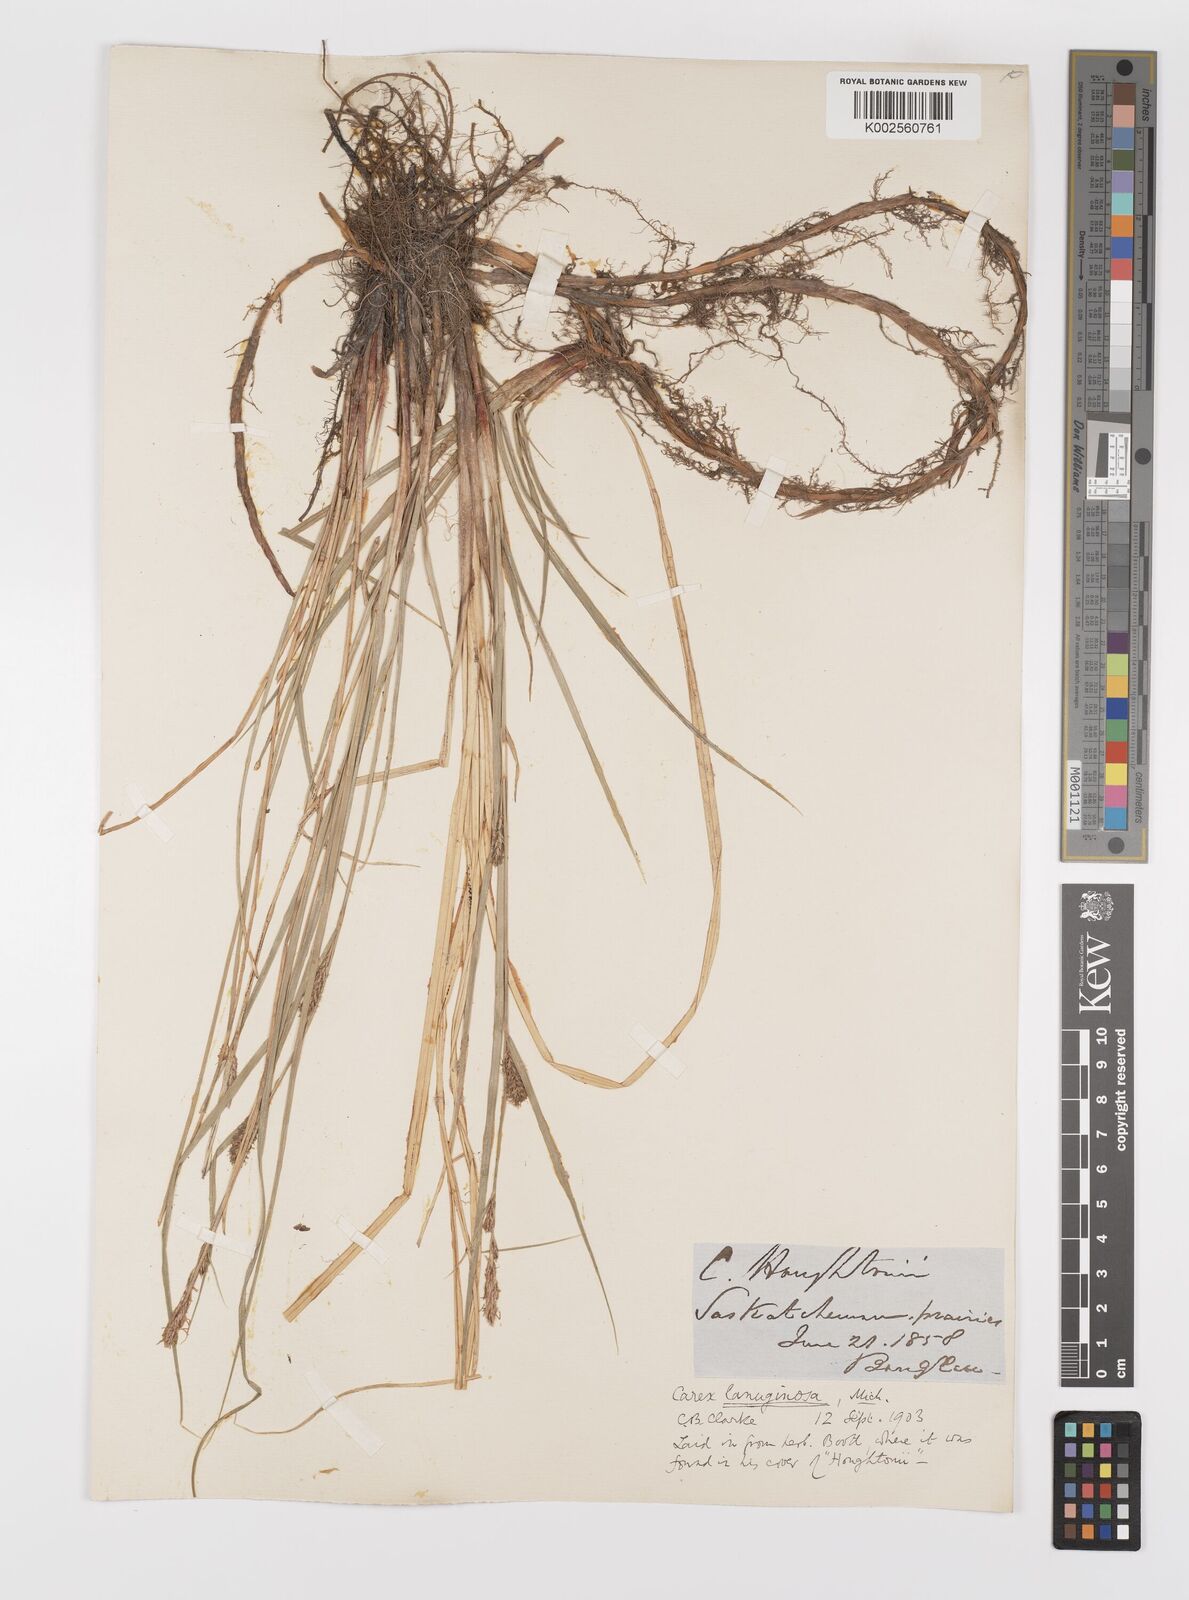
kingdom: Plantae
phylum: Tracheophyta
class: Liliopsida
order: Poales
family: Cyperaceae
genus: Carex
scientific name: Carex lasiocarpa
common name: Slender sedge
